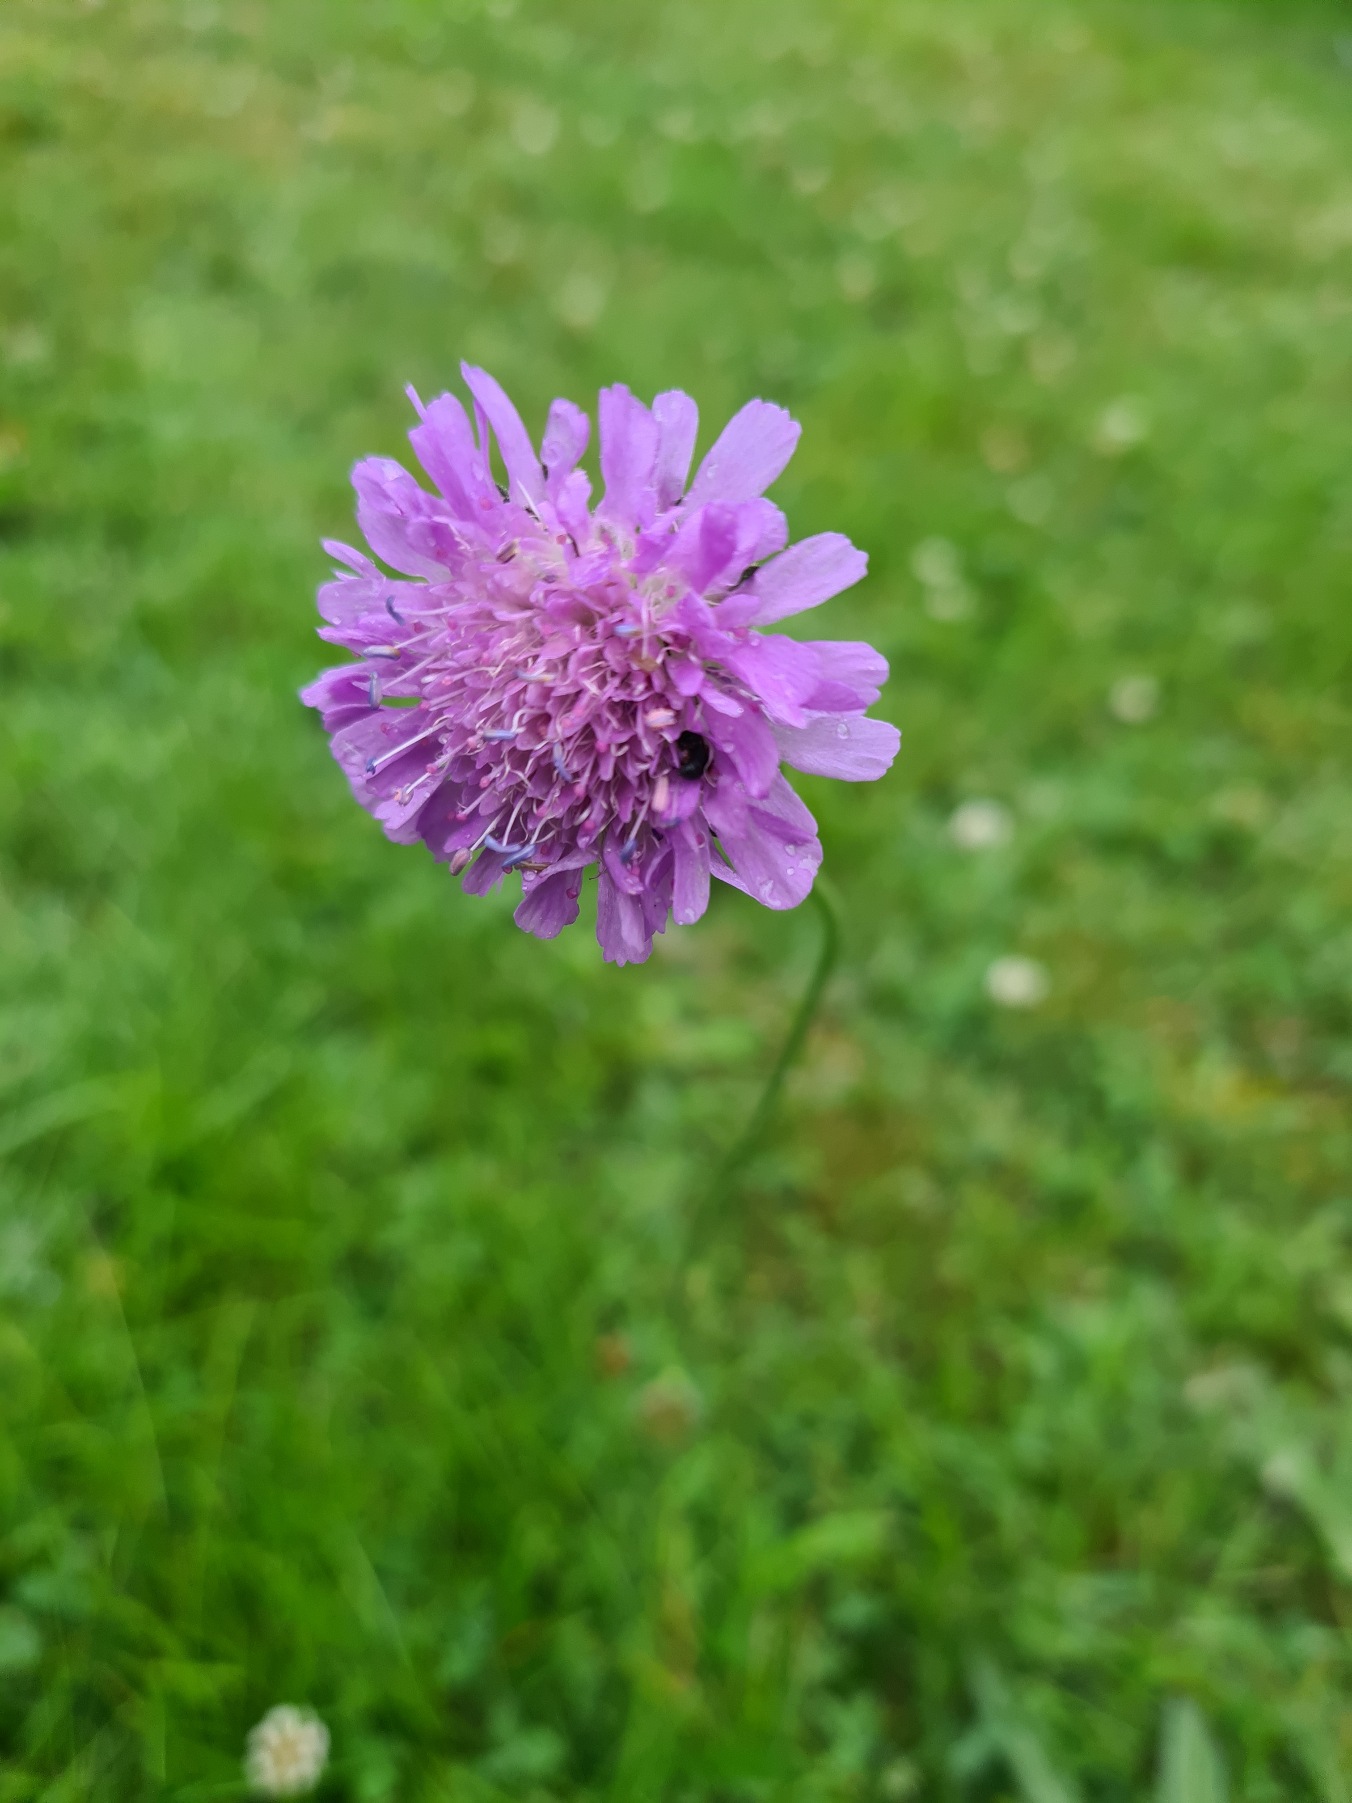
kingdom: Plantae
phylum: Tracheophyta
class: Magnoliopsida
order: Dipsacales
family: Caprifoliaceae
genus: Knautia
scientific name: Knautia arvensis
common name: Blåhat
